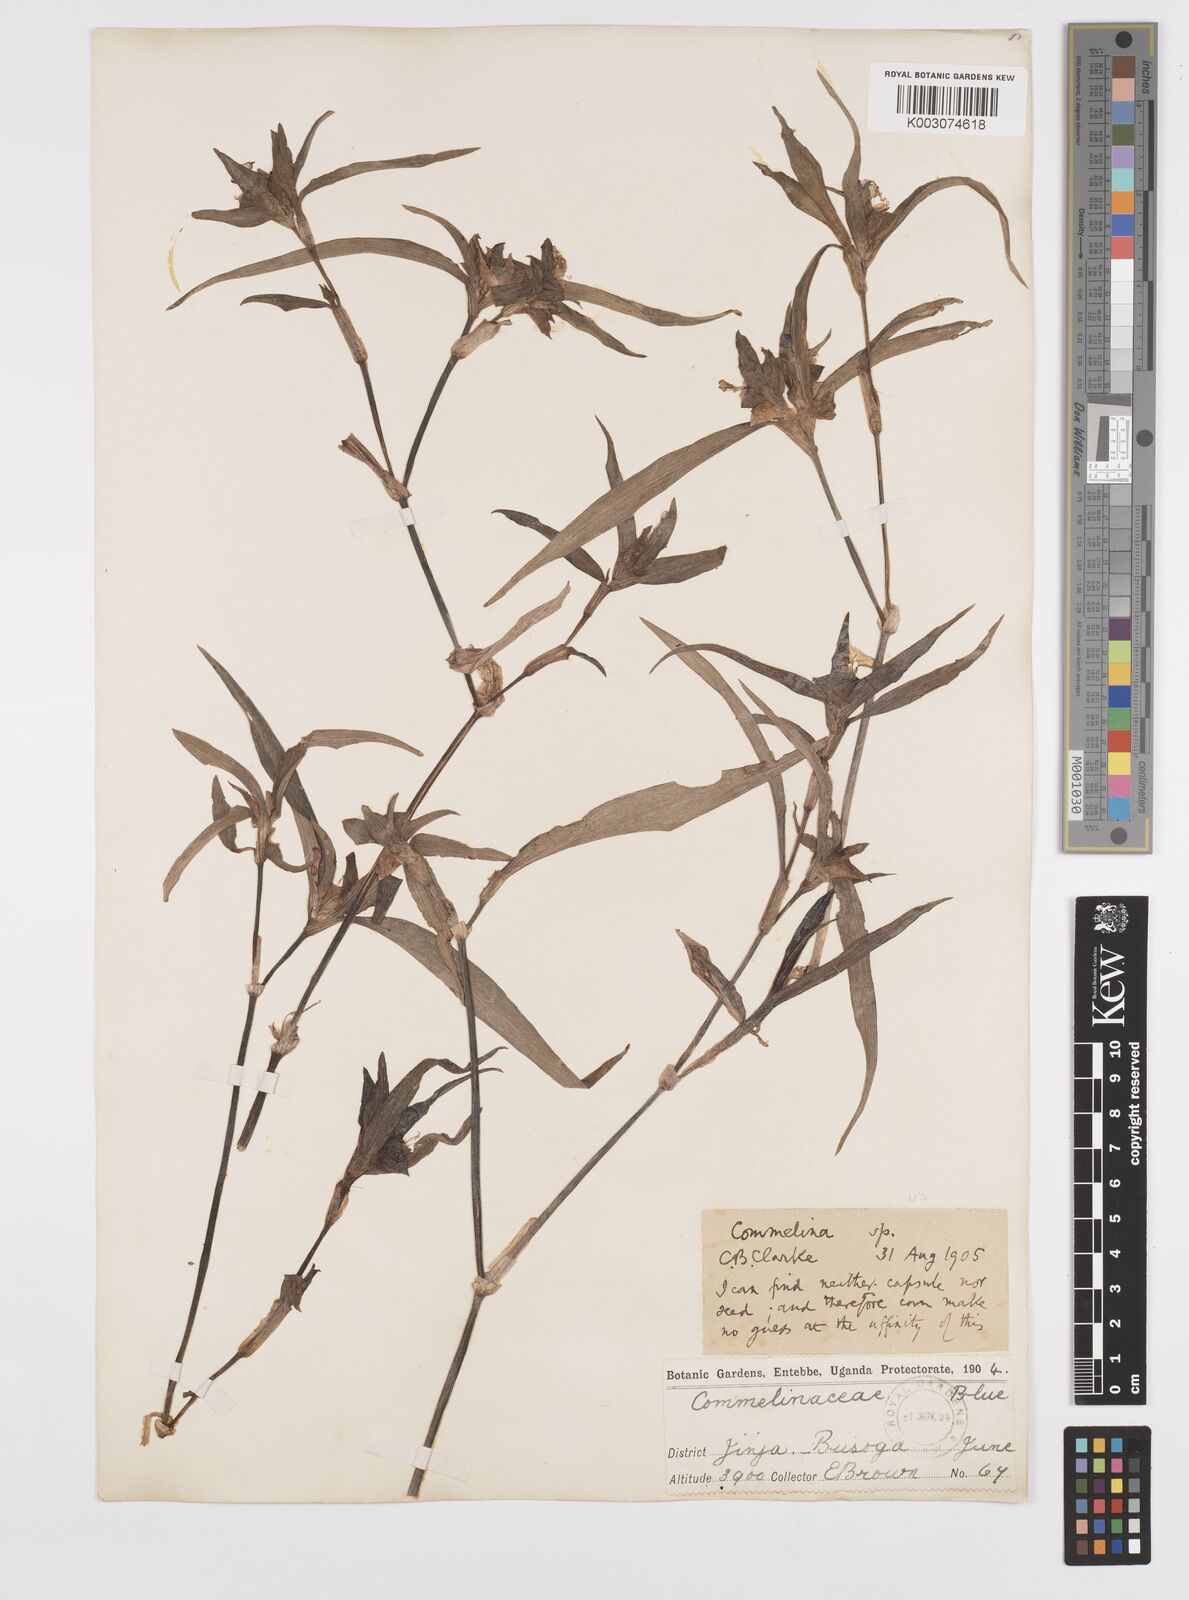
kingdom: Plantae
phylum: Tracheophyta
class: Liliopsida
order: Commelinales
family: Commelinaceae
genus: Commelina
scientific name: Commelina erecta
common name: Blousel blommetjie
